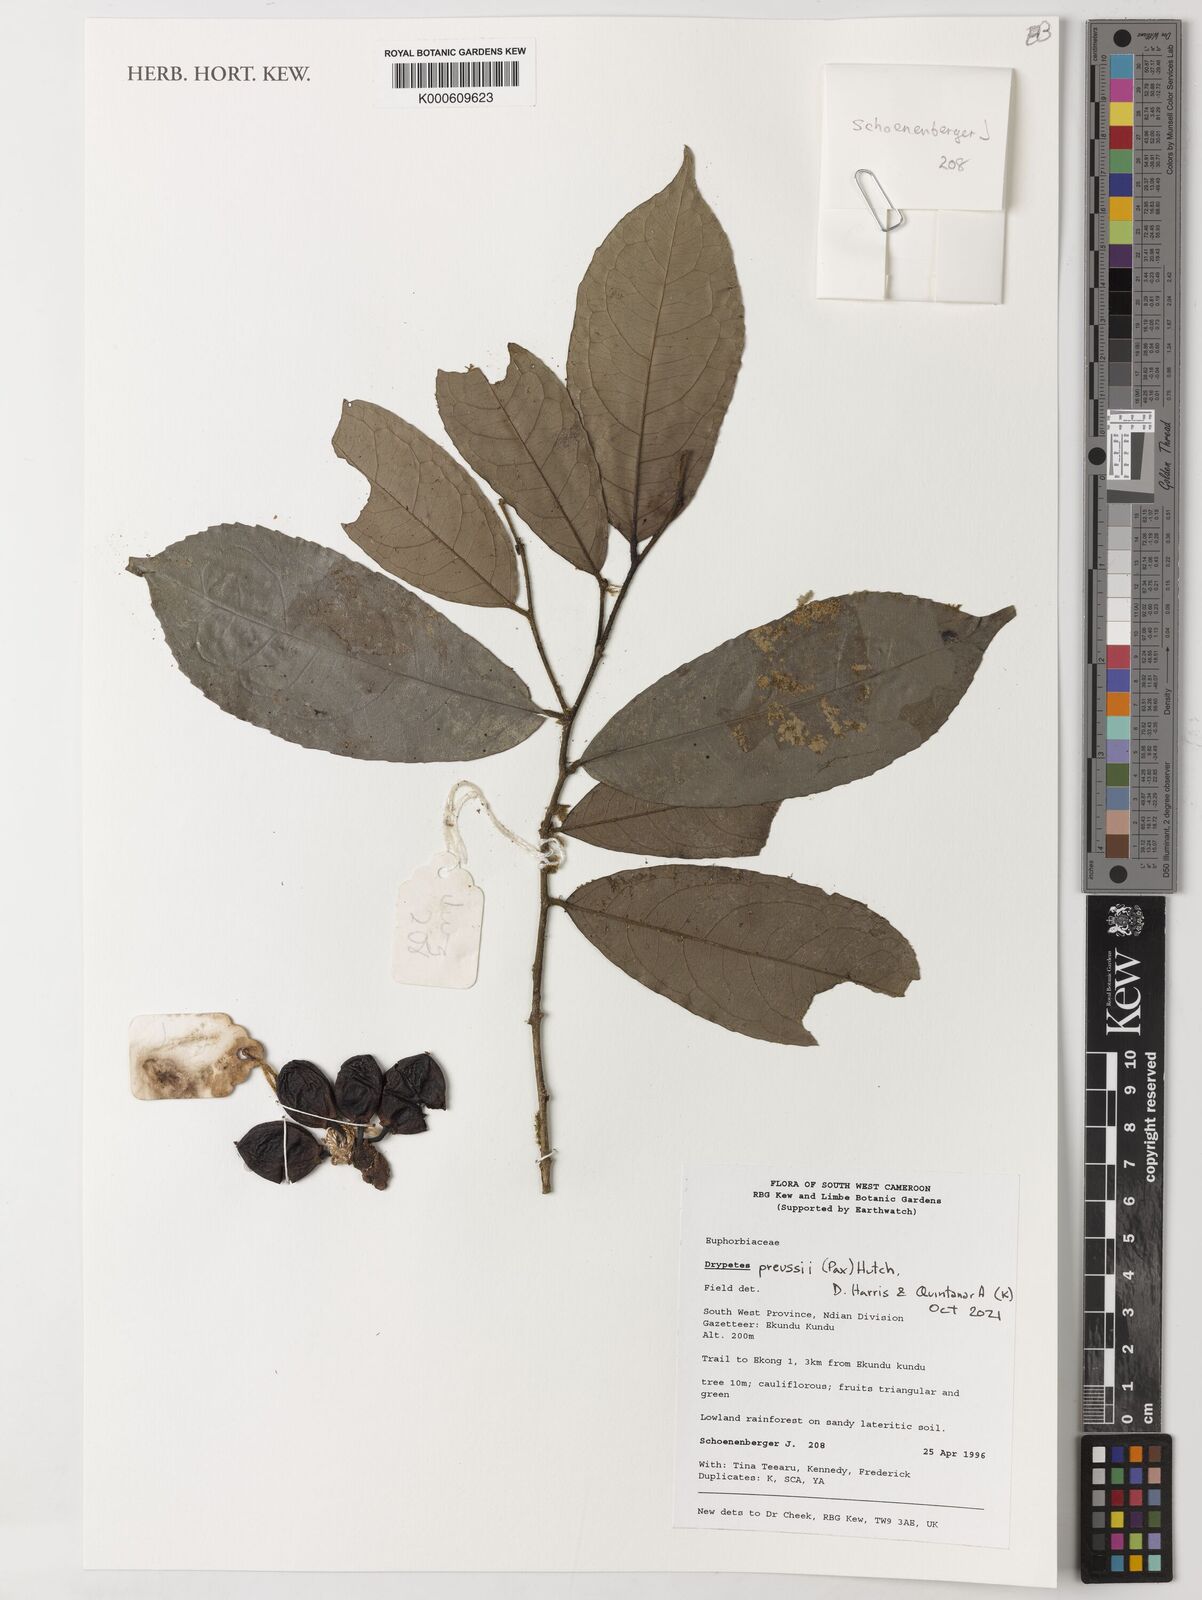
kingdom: Plantae
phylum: Tracheophyta
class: Magnoliopsida
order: Malpighiales
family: Putranjivaceae
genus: Drypetes
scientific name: Drypetes preussii
